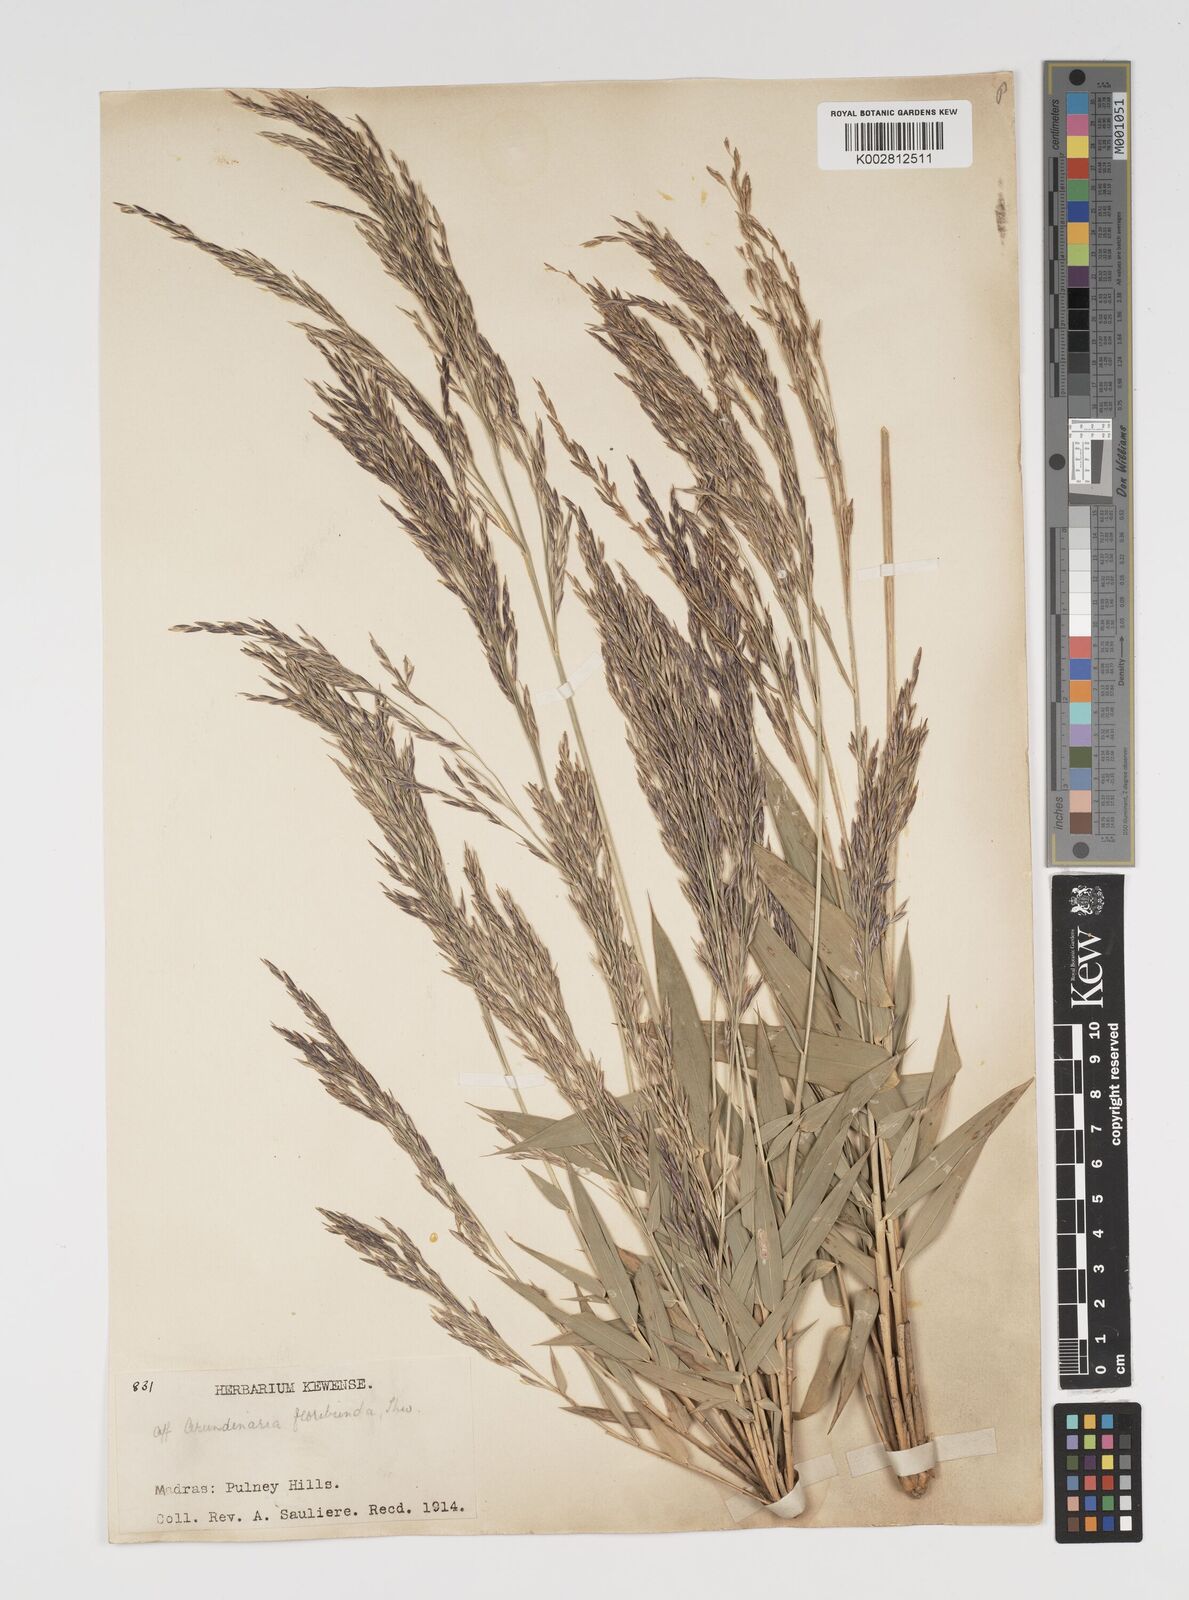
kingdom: Plantae
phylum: Tracheophyta
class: Liliopsida
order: Poales
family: Poaceae
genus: Arundinaria
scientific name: Arundinaria
